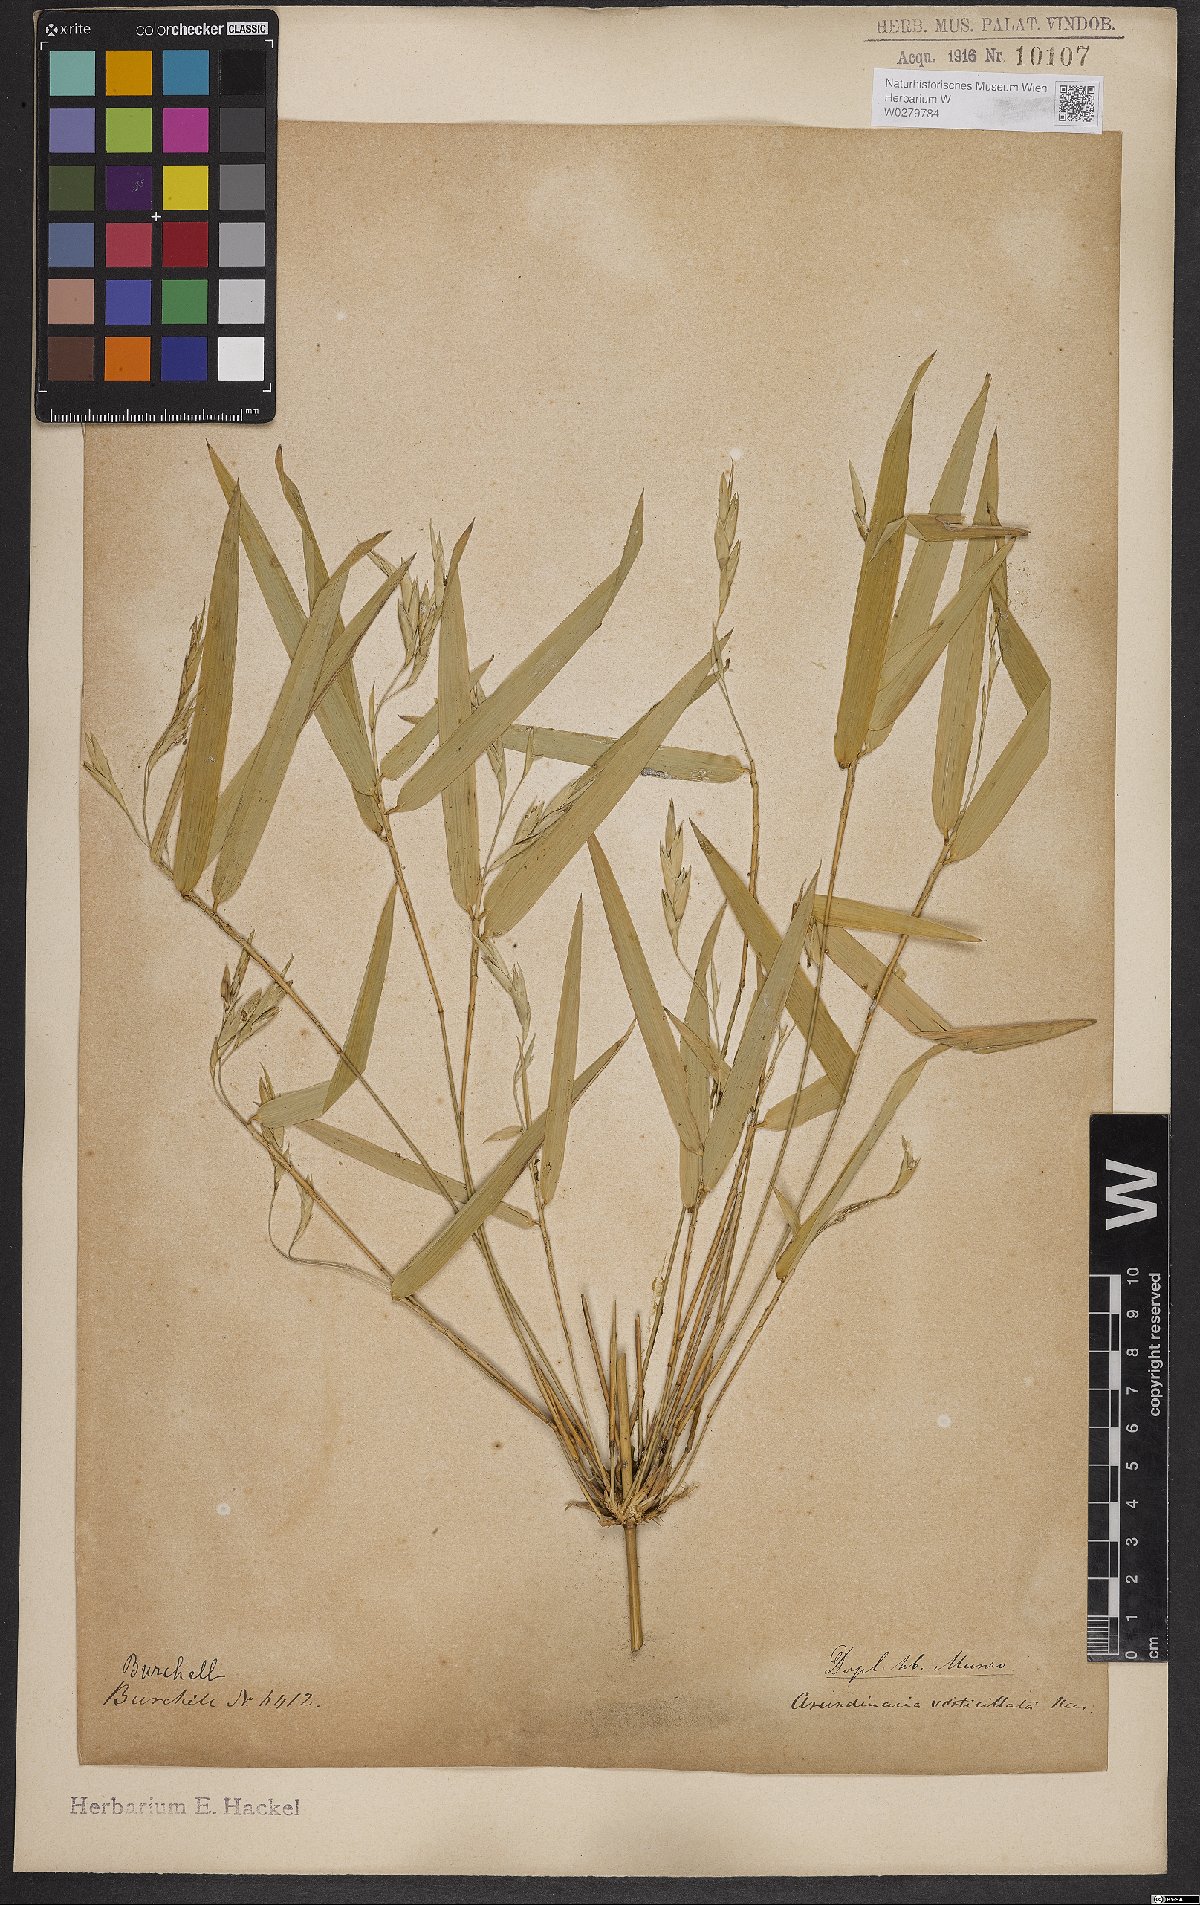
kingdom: Plantae
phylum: Tracheophyta
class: Liliopsida
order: Poales
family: Poaceae
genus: Actinocladum
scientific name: Actinocladum verticillatum
